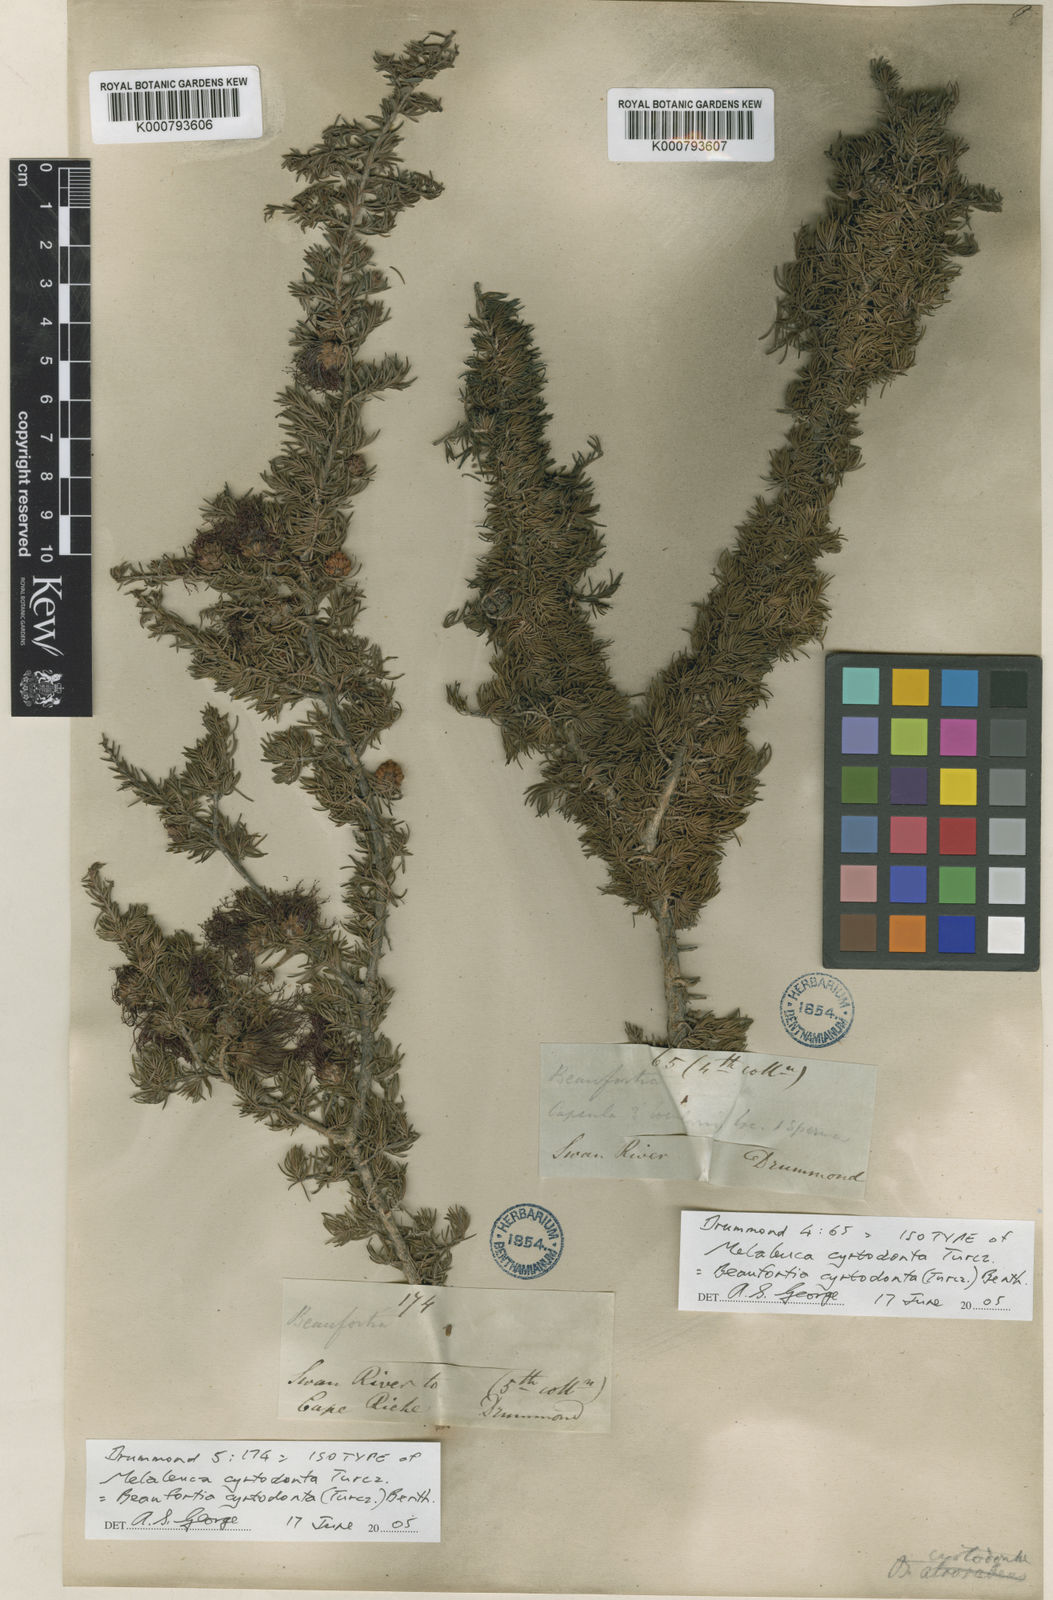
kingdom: Plantae
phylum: Tracheophyta
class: Magnoliopsida
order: Myrtales
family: Myrtaceae
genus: Melaleuca
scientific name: Melaleuca cyrtodonta
